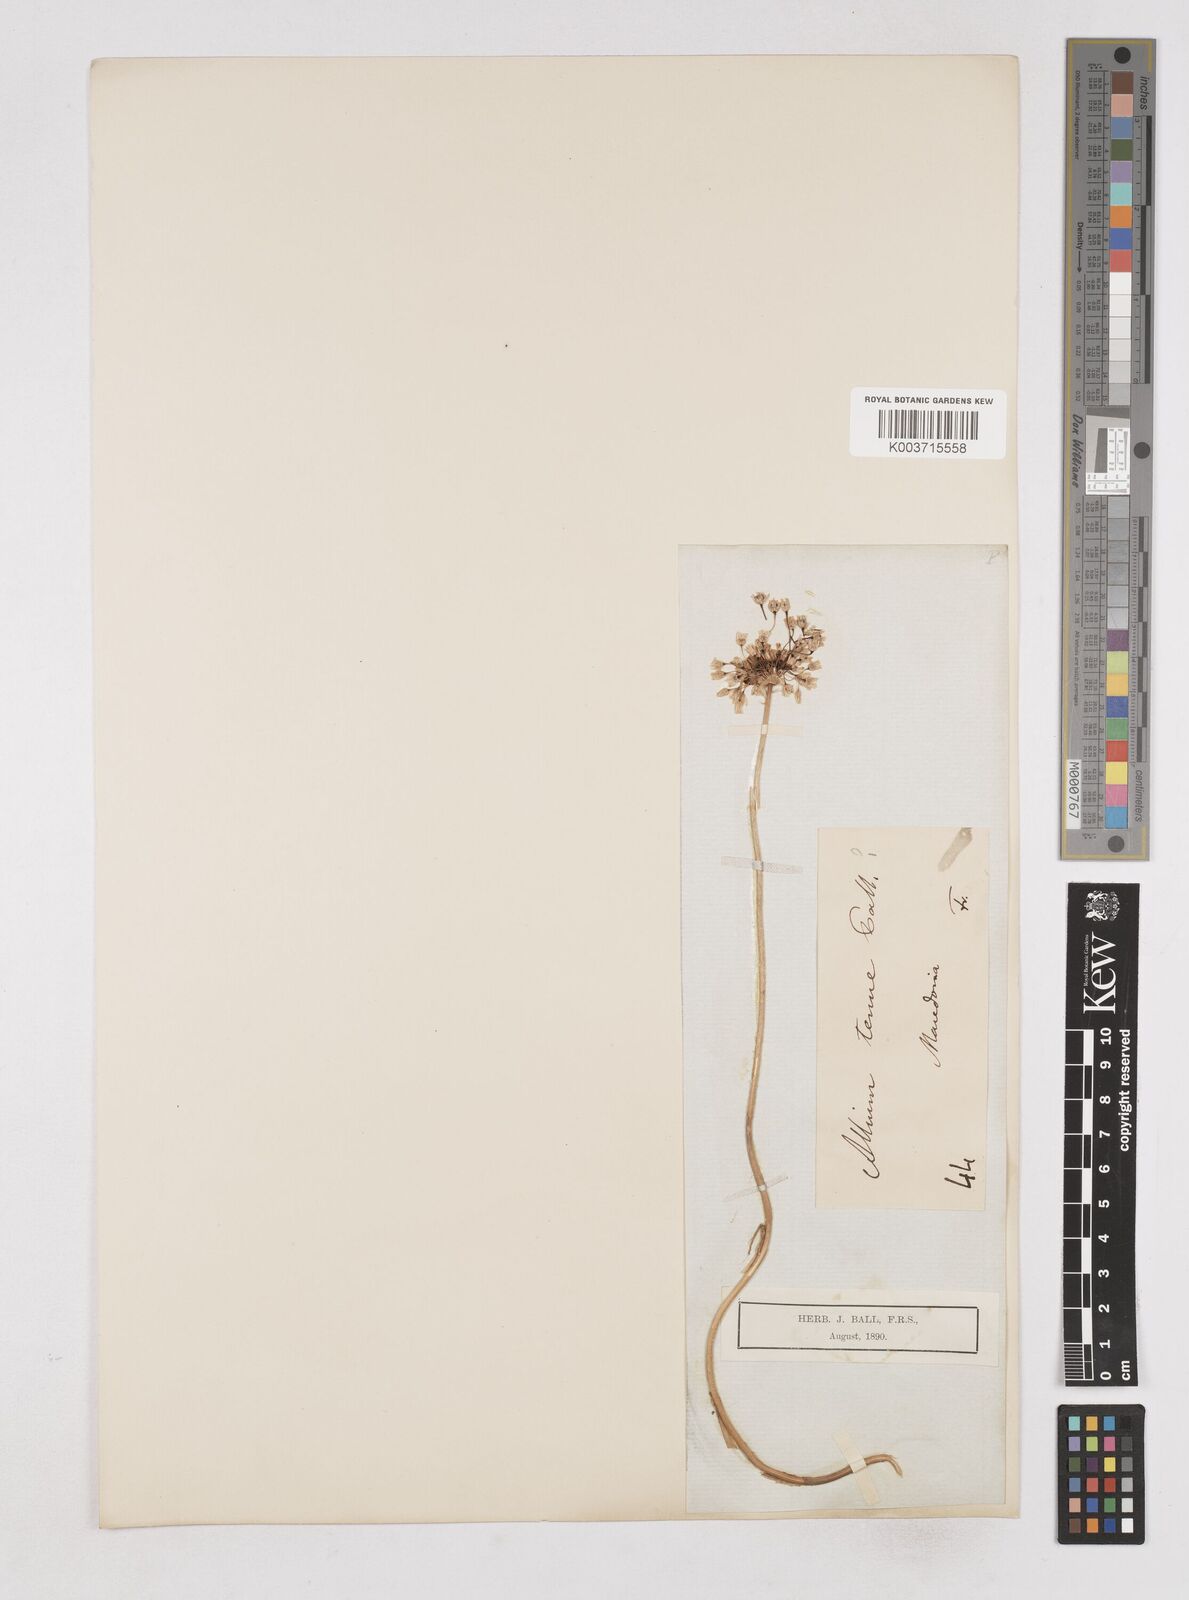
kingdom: Plantae
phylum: Tracheophyta
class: Liliopsida
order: Asparagales
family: Amaryllidaceae
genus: Allium
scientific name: Allium
